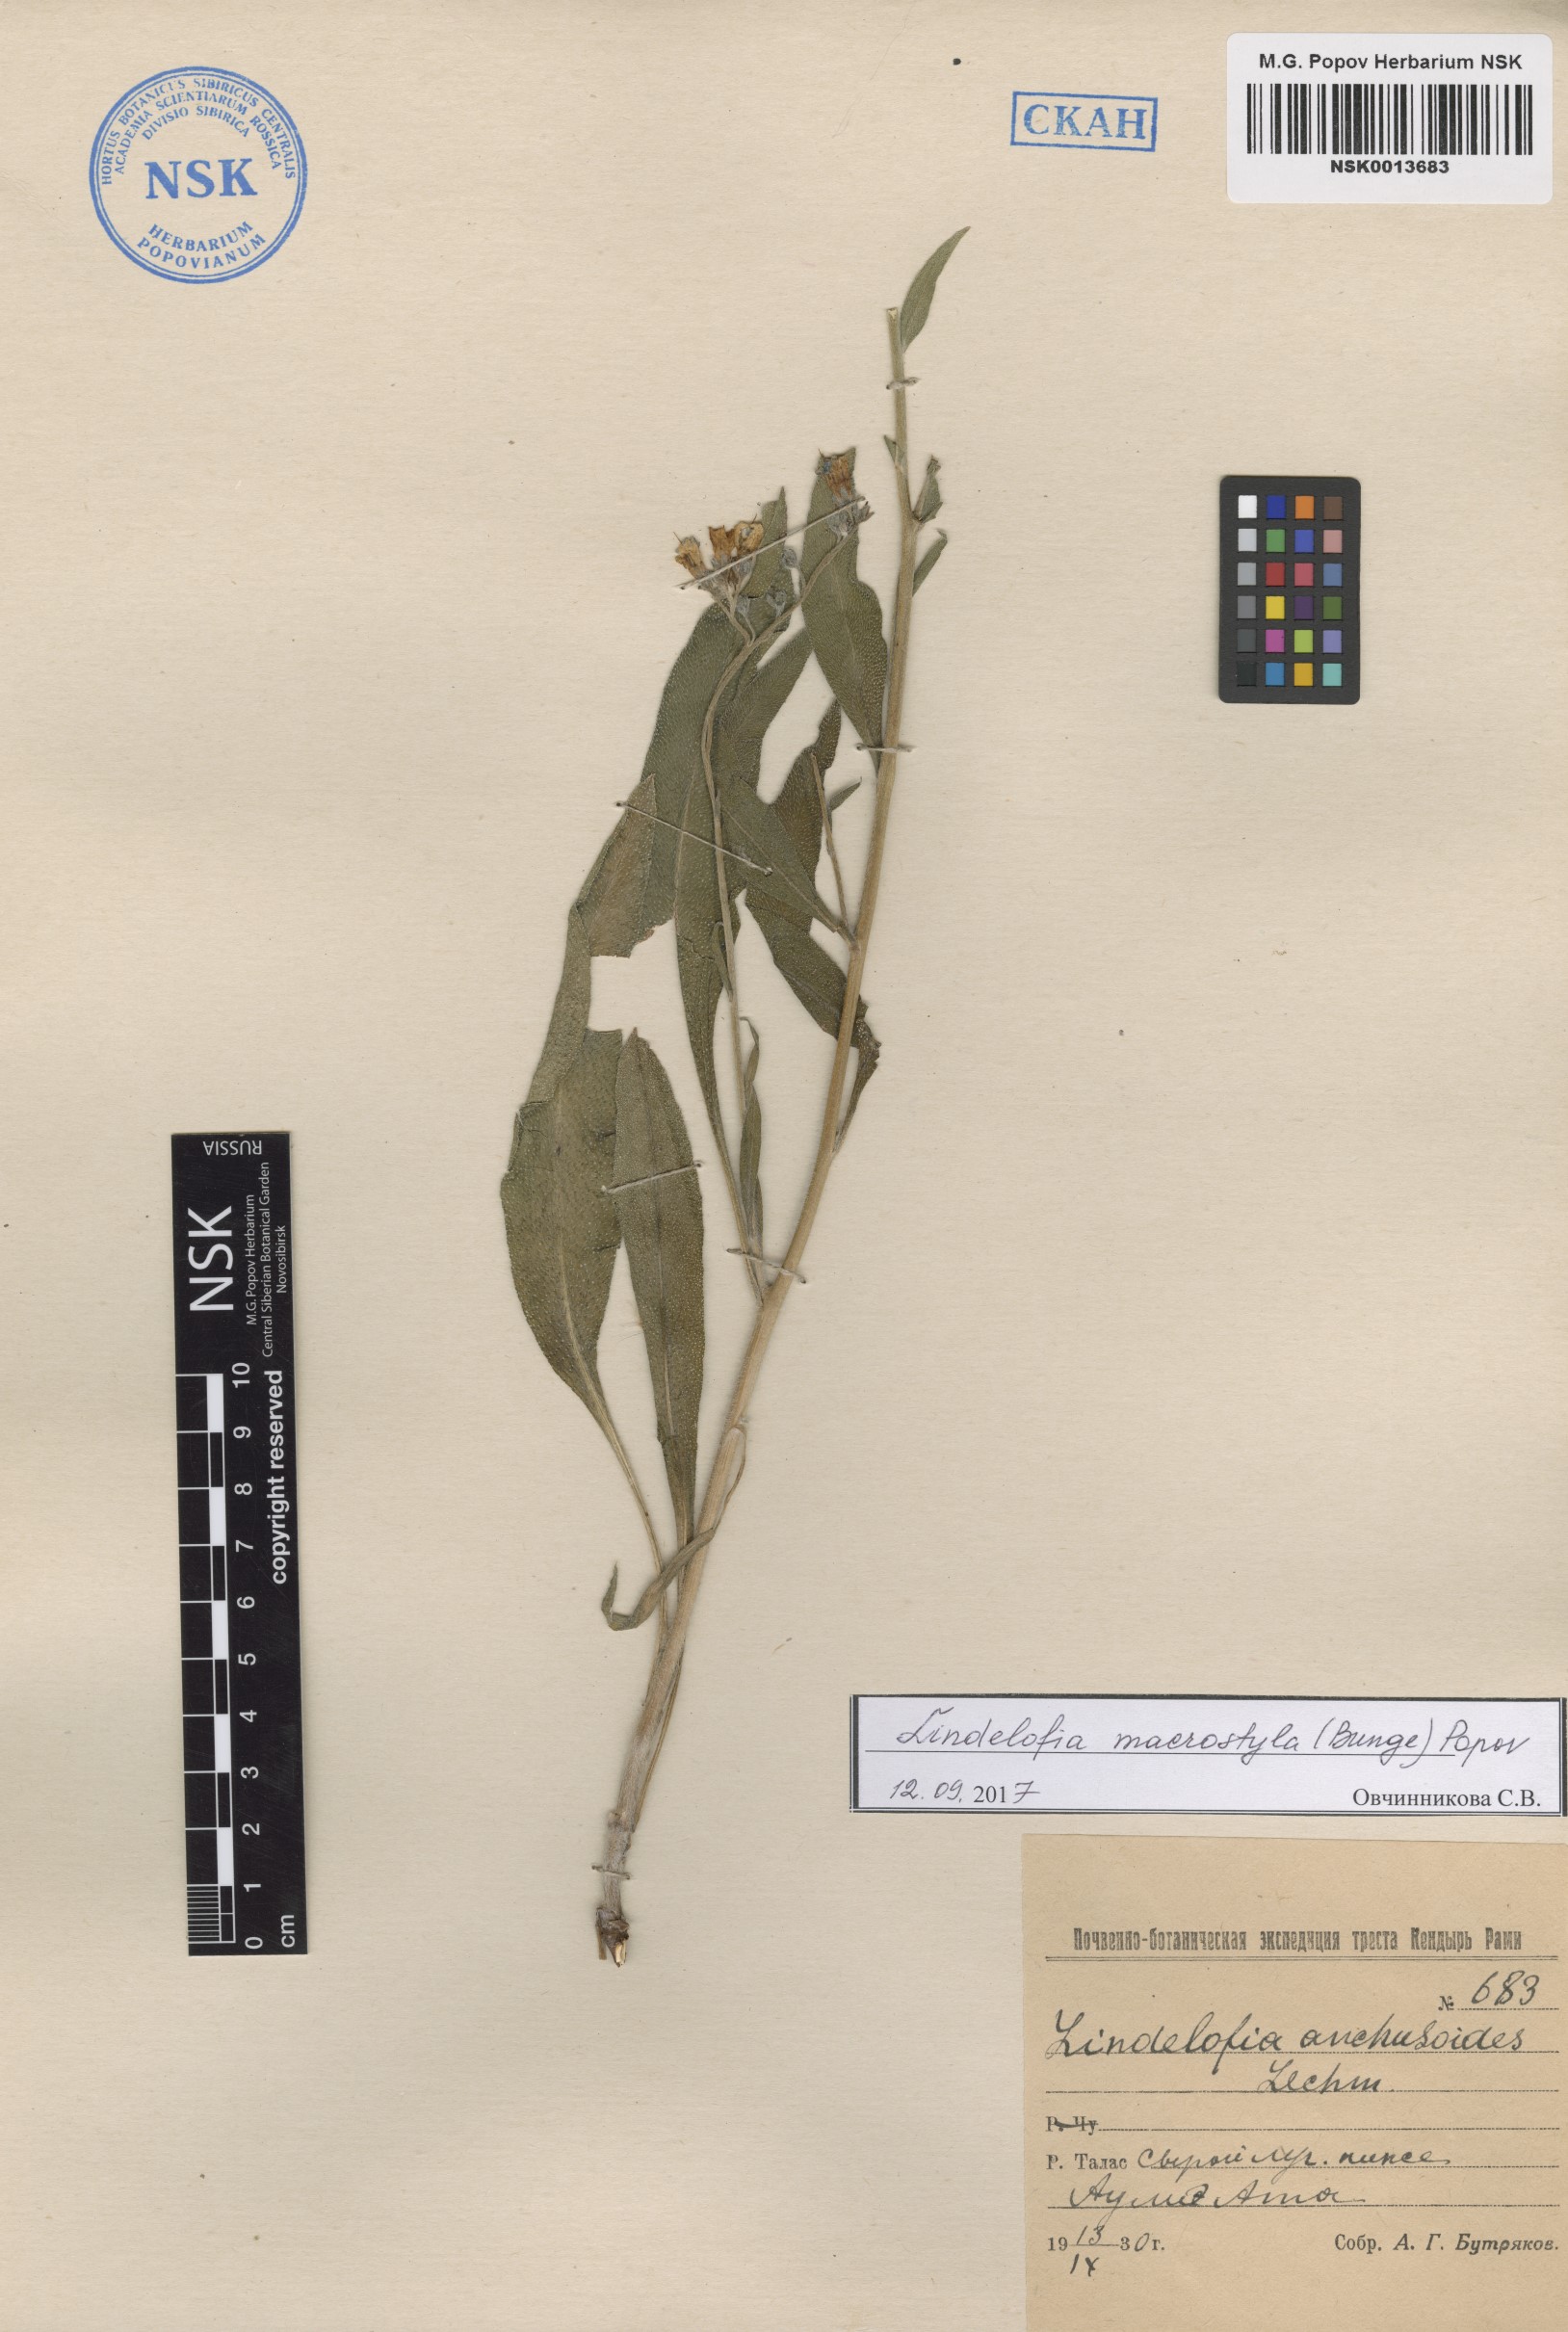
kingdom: Plantae
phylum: Tracheophyta
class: Magnoliopsida
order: Boraginales
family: Boraginaceae
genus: Lindelofia
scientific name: Lindelofia anchusoides
